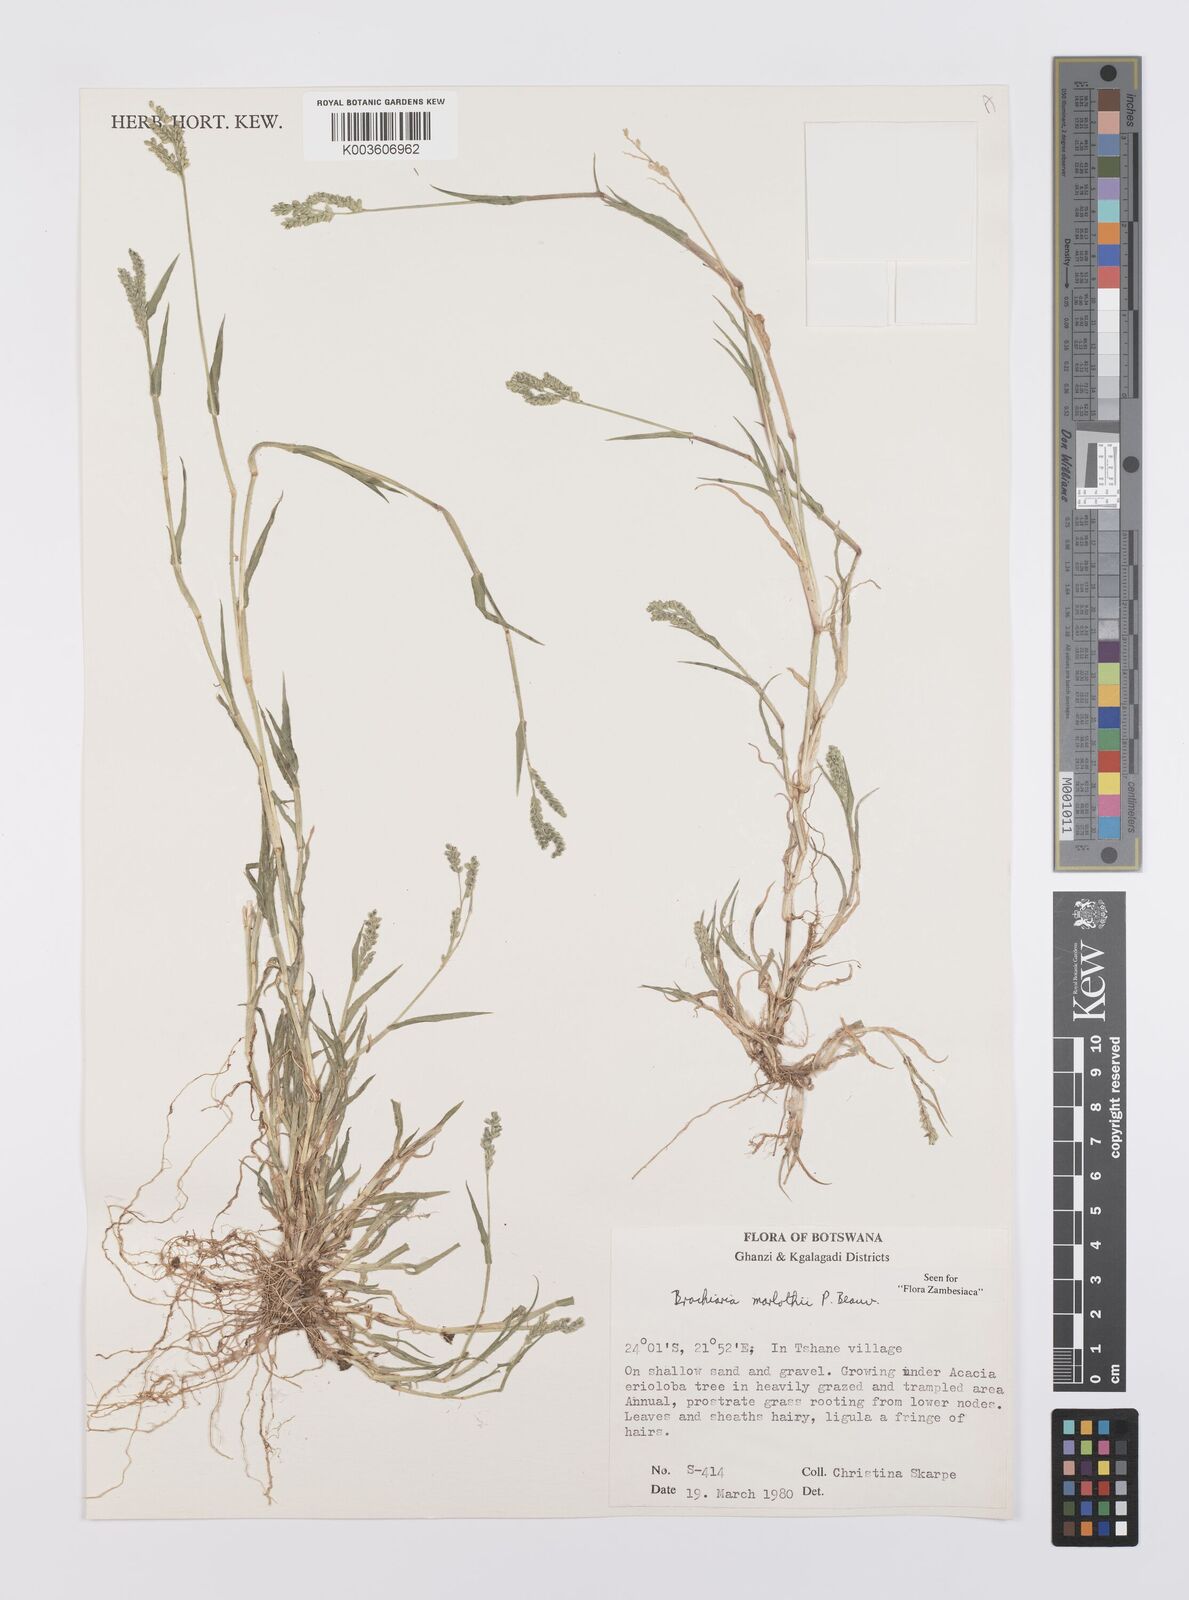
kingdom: Plantae
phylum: Tracheophyta
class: Liliopsida
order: Poales
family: Poaceae
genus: Urochloa
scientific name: Urochloa Brachiaria marlothii
